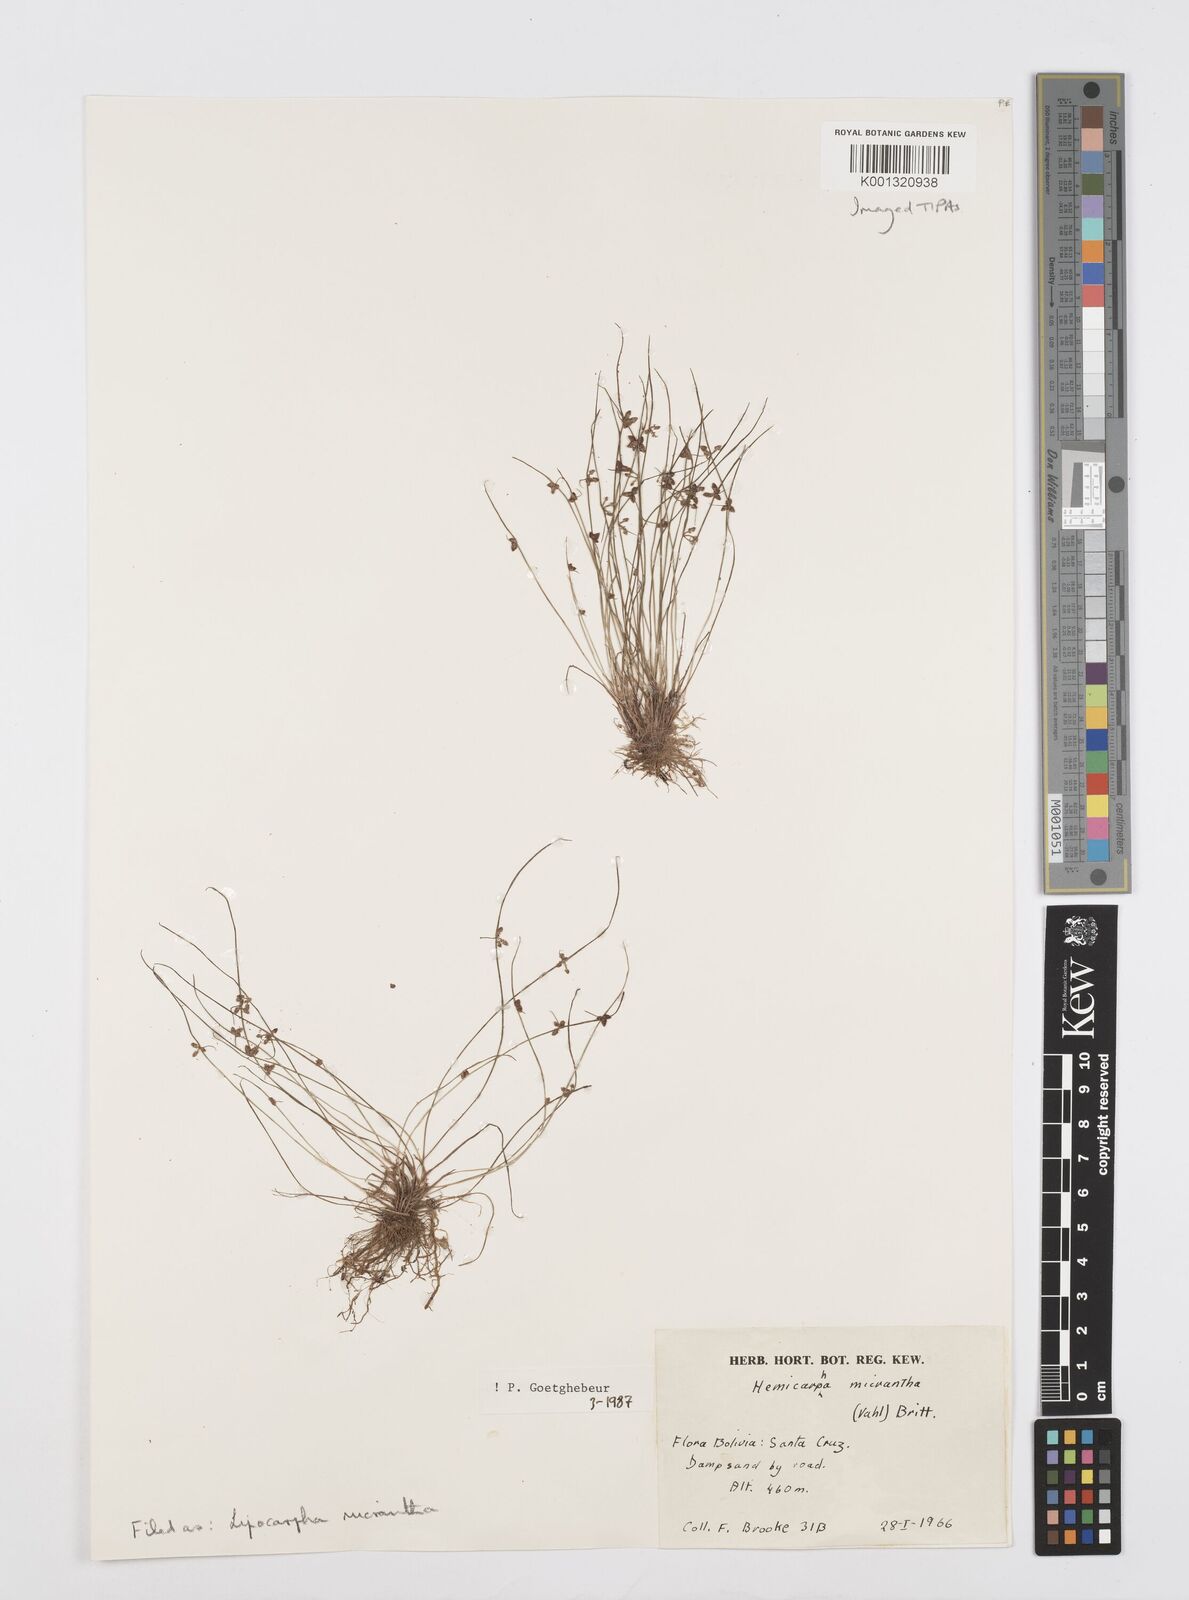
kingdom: Plantae
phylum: Tracheophyta
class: Liliopsida
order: Poales
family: Cyperaceae
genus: Cyperus
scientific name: Cyperus dentatus
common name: Dentate umbrella sedge
